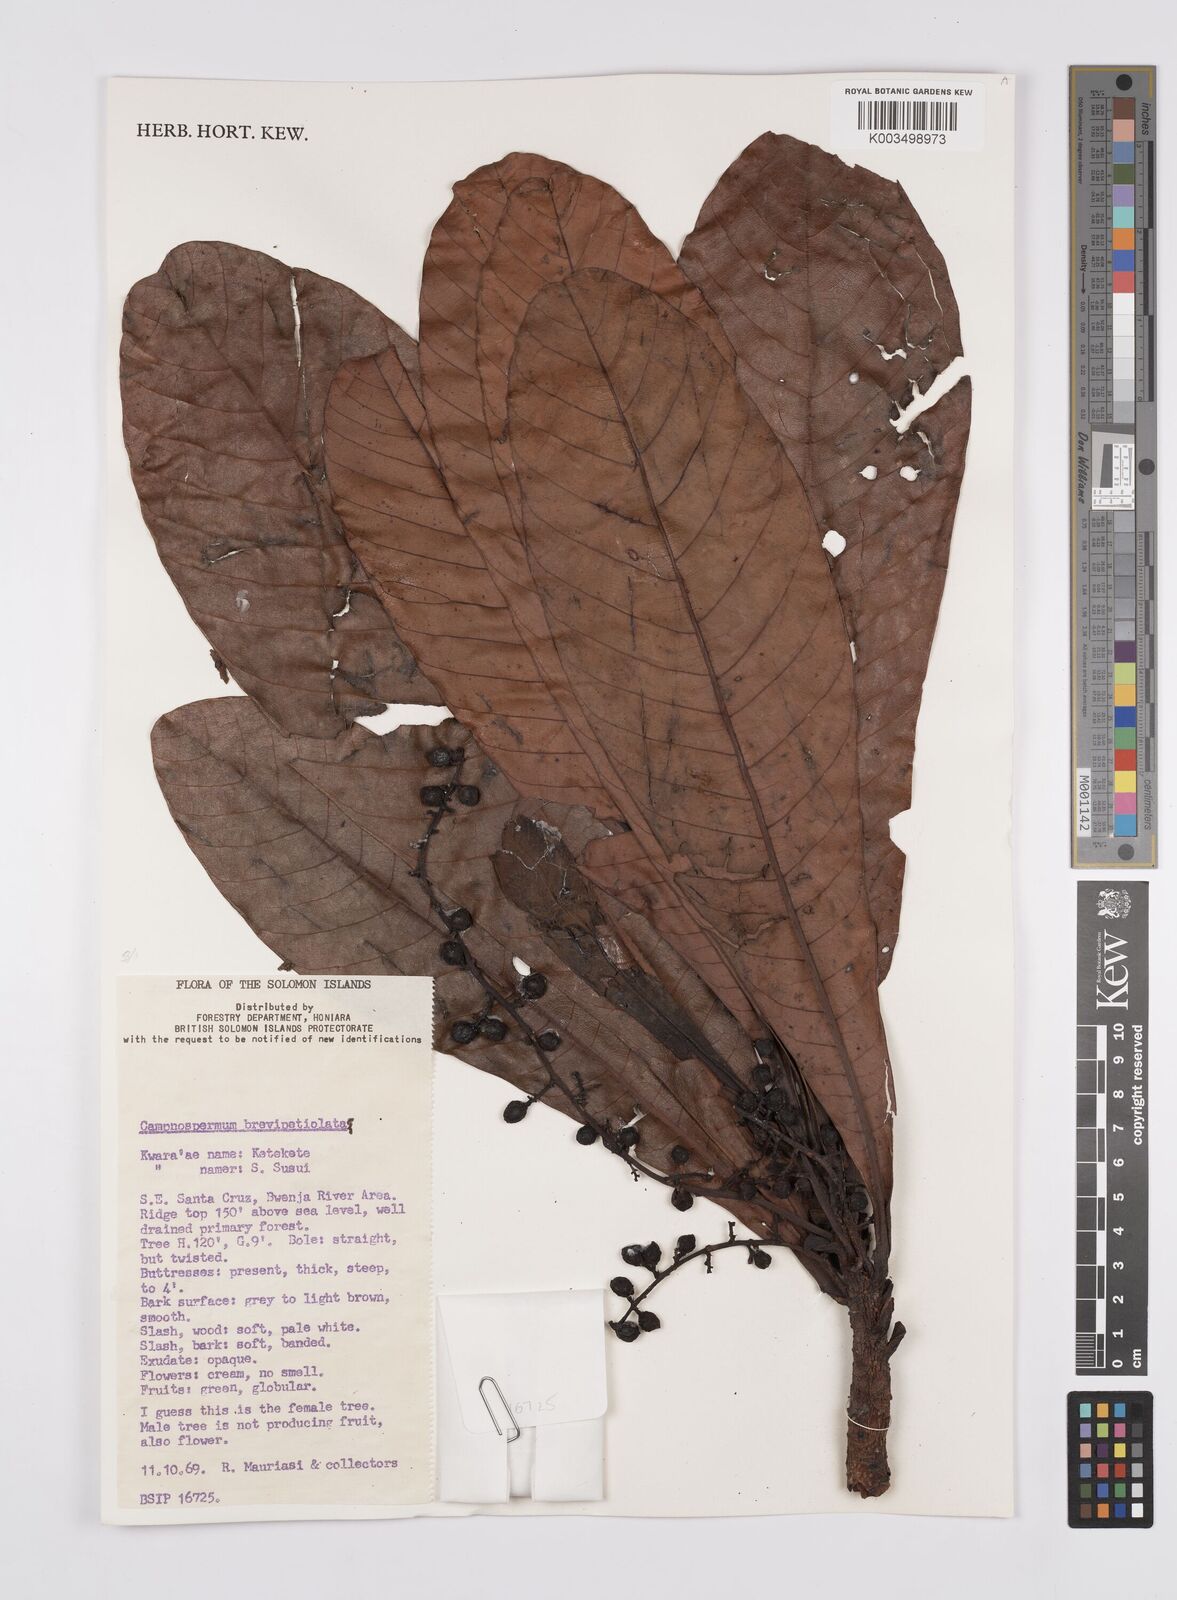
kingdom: Plantae
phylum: Tracheophyta
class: Magnoliopsida
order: Sapindales
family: Anacardiaceae
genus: Campnosperma
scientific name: Campnosperma brevipetiolatum
